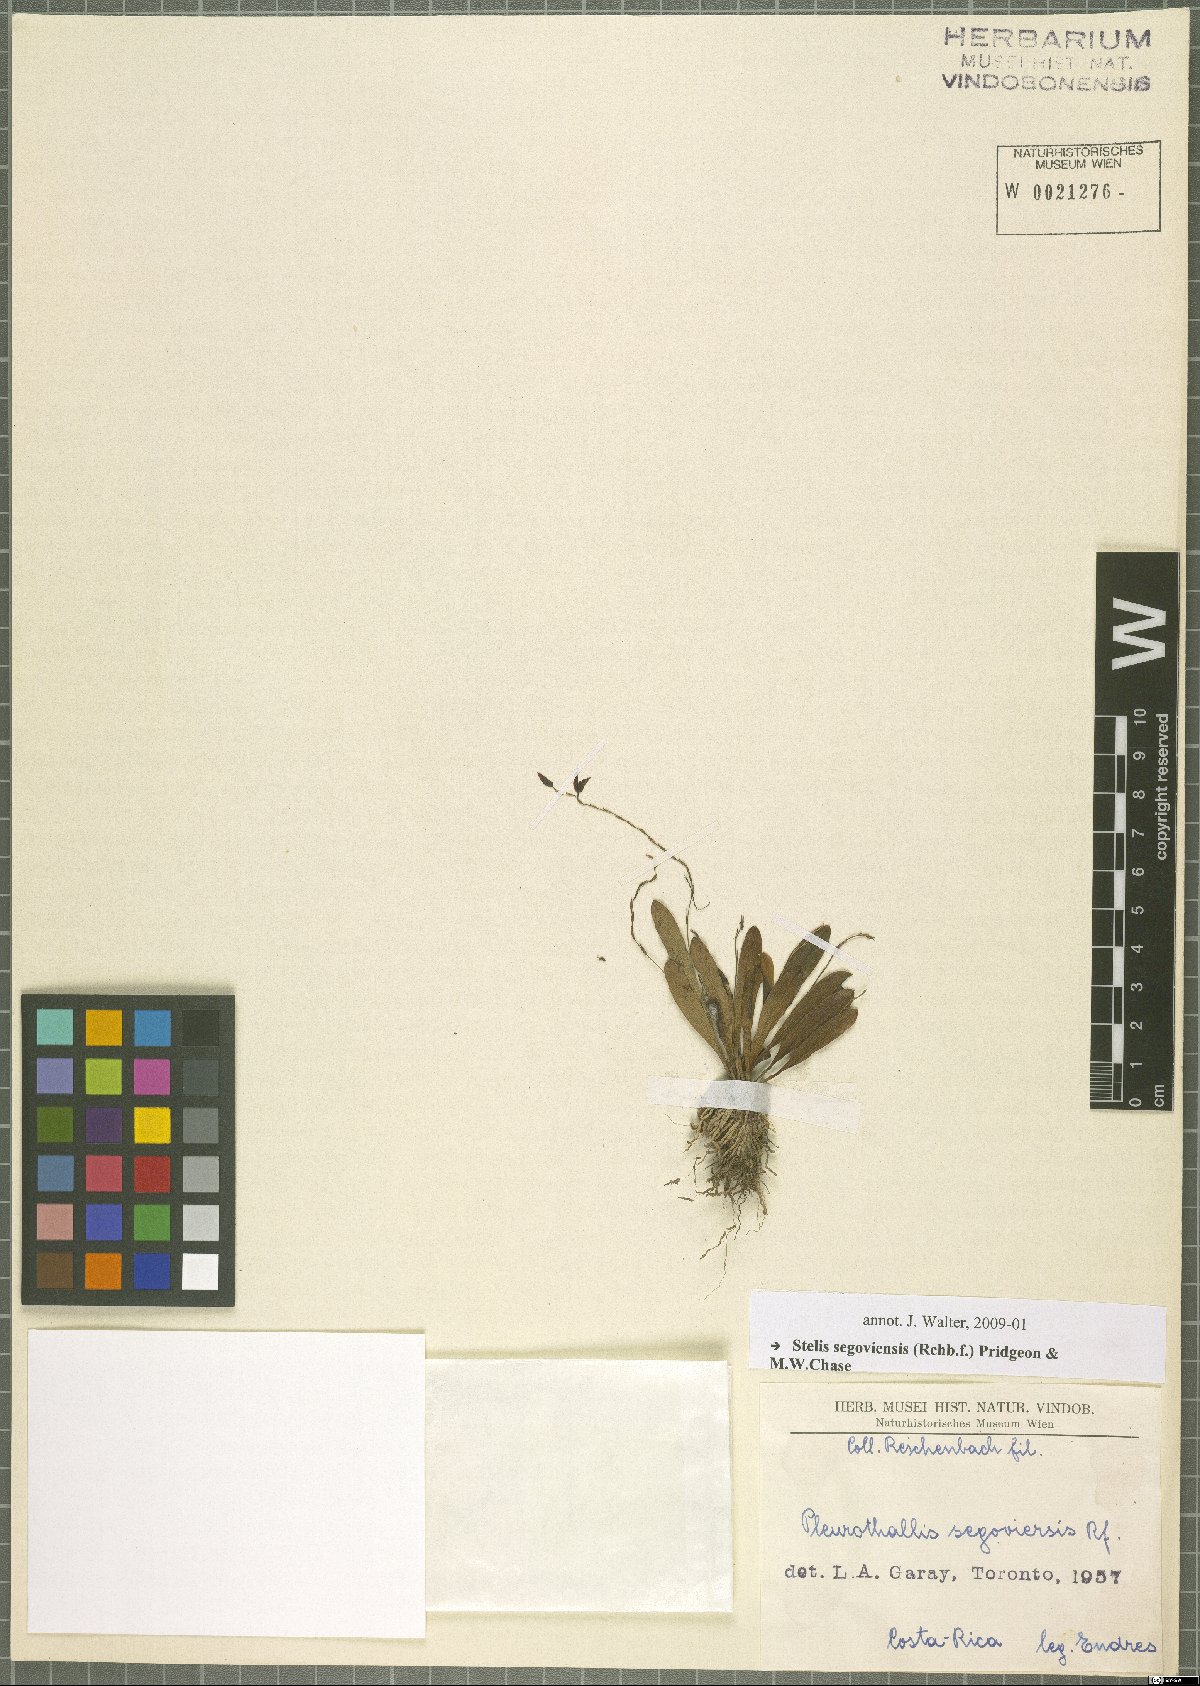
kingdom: Plantae
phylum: Tracheophyta
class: Liliopsida
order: Asparagales
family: Orchidaceae
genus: Stelis
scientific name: Stelis segoviensis
